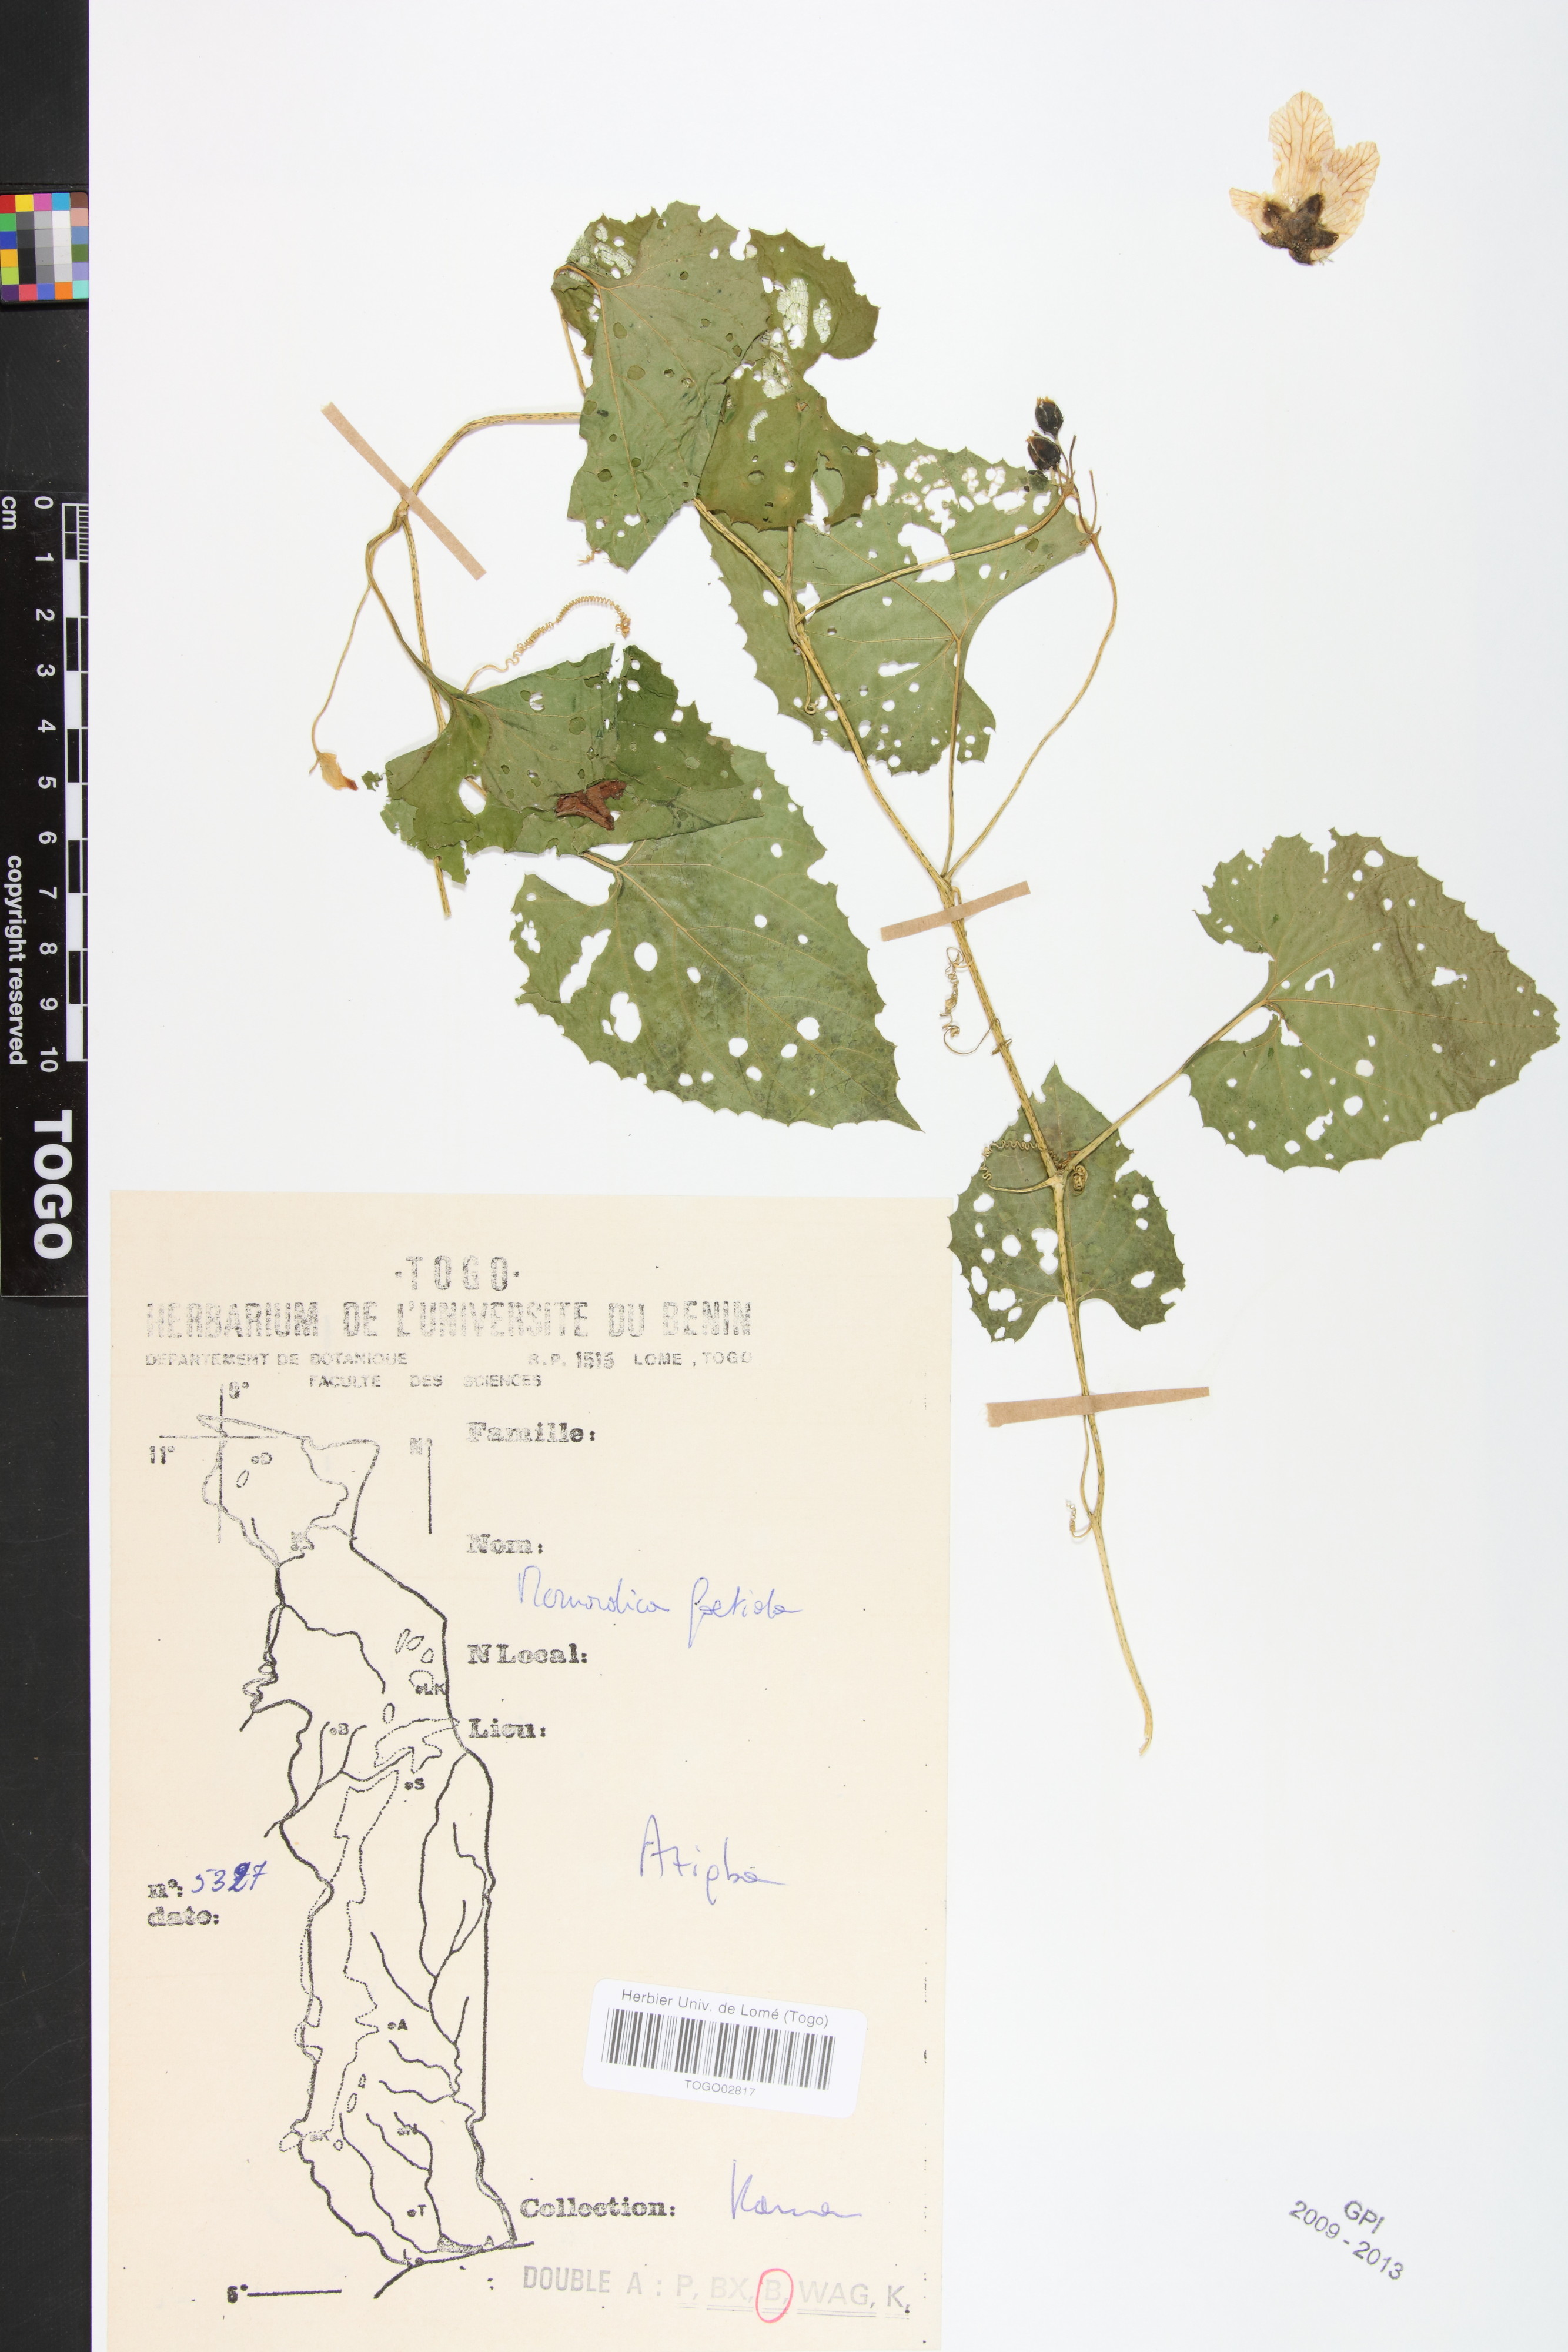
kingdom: Plantae
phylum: Tracheophyta
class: Magnoliopsida
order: Cucurbitales
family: Cucurbitaceae
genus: Momordica
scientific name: Momordica foetida
